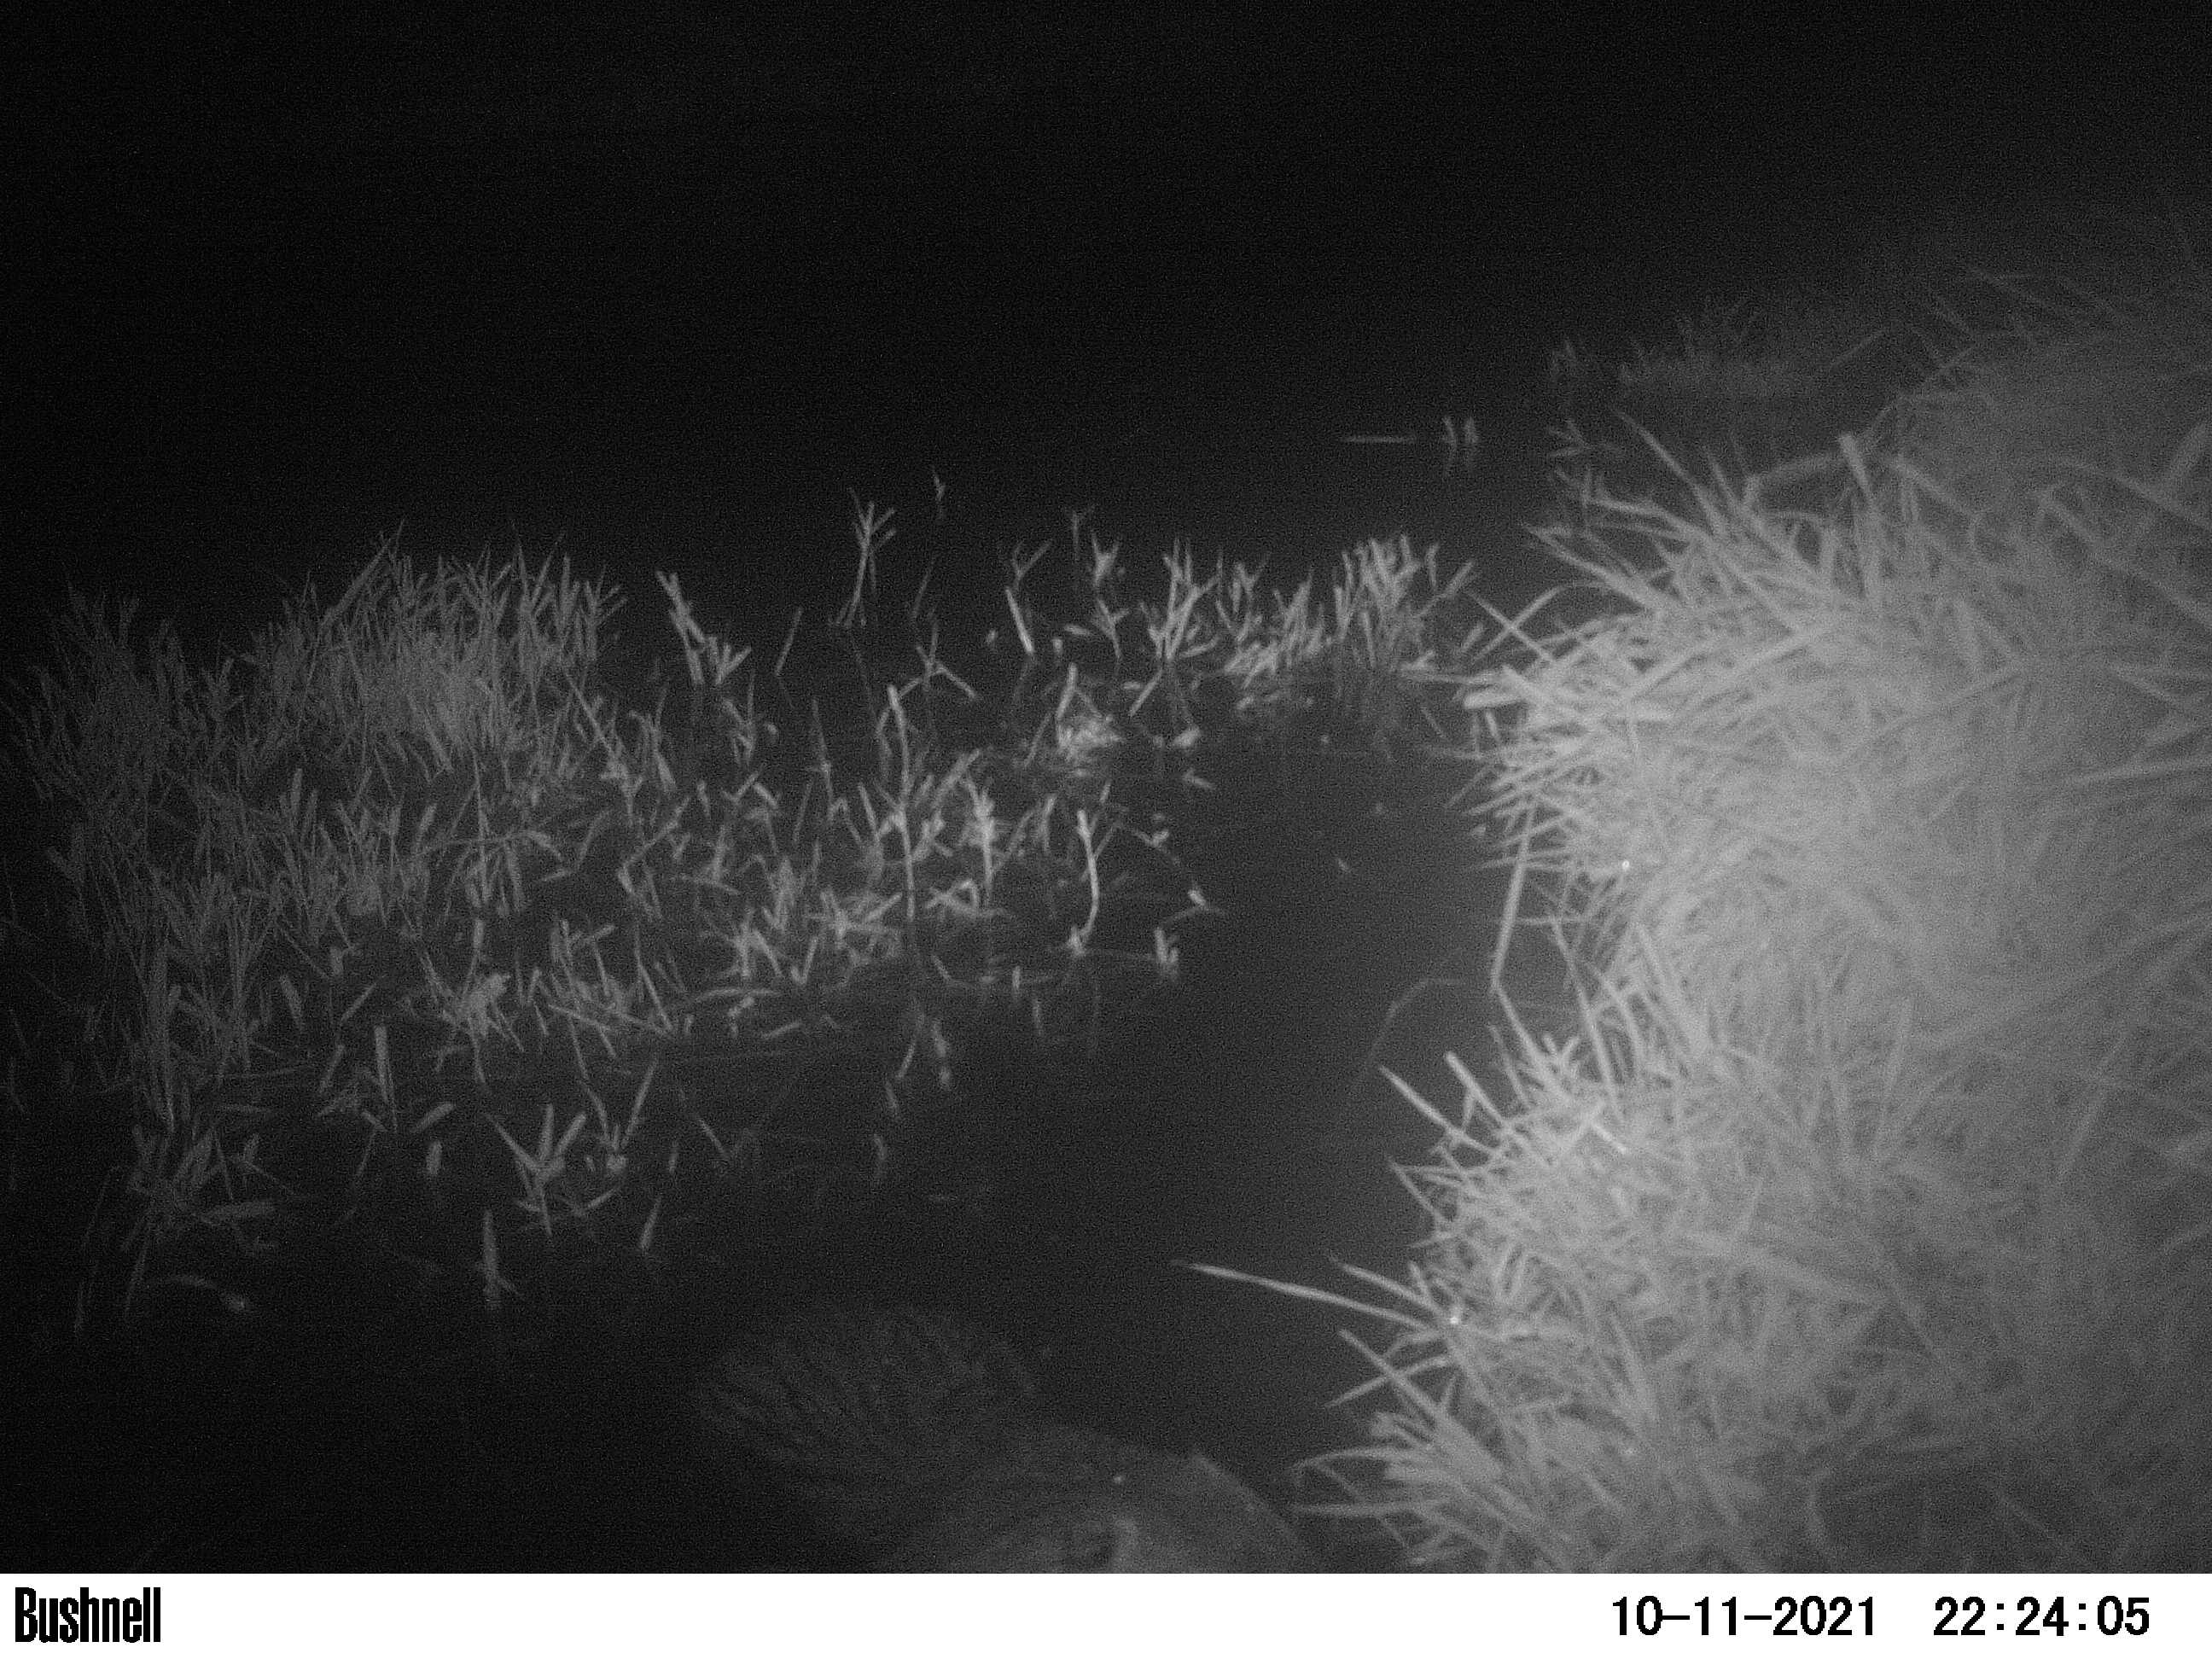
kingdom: Animalia
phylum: Chordata
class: Mammalia
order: Rodentia
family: Myocastoridae
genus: Myocastor
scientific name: Myocastor coypus
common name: Coypu
